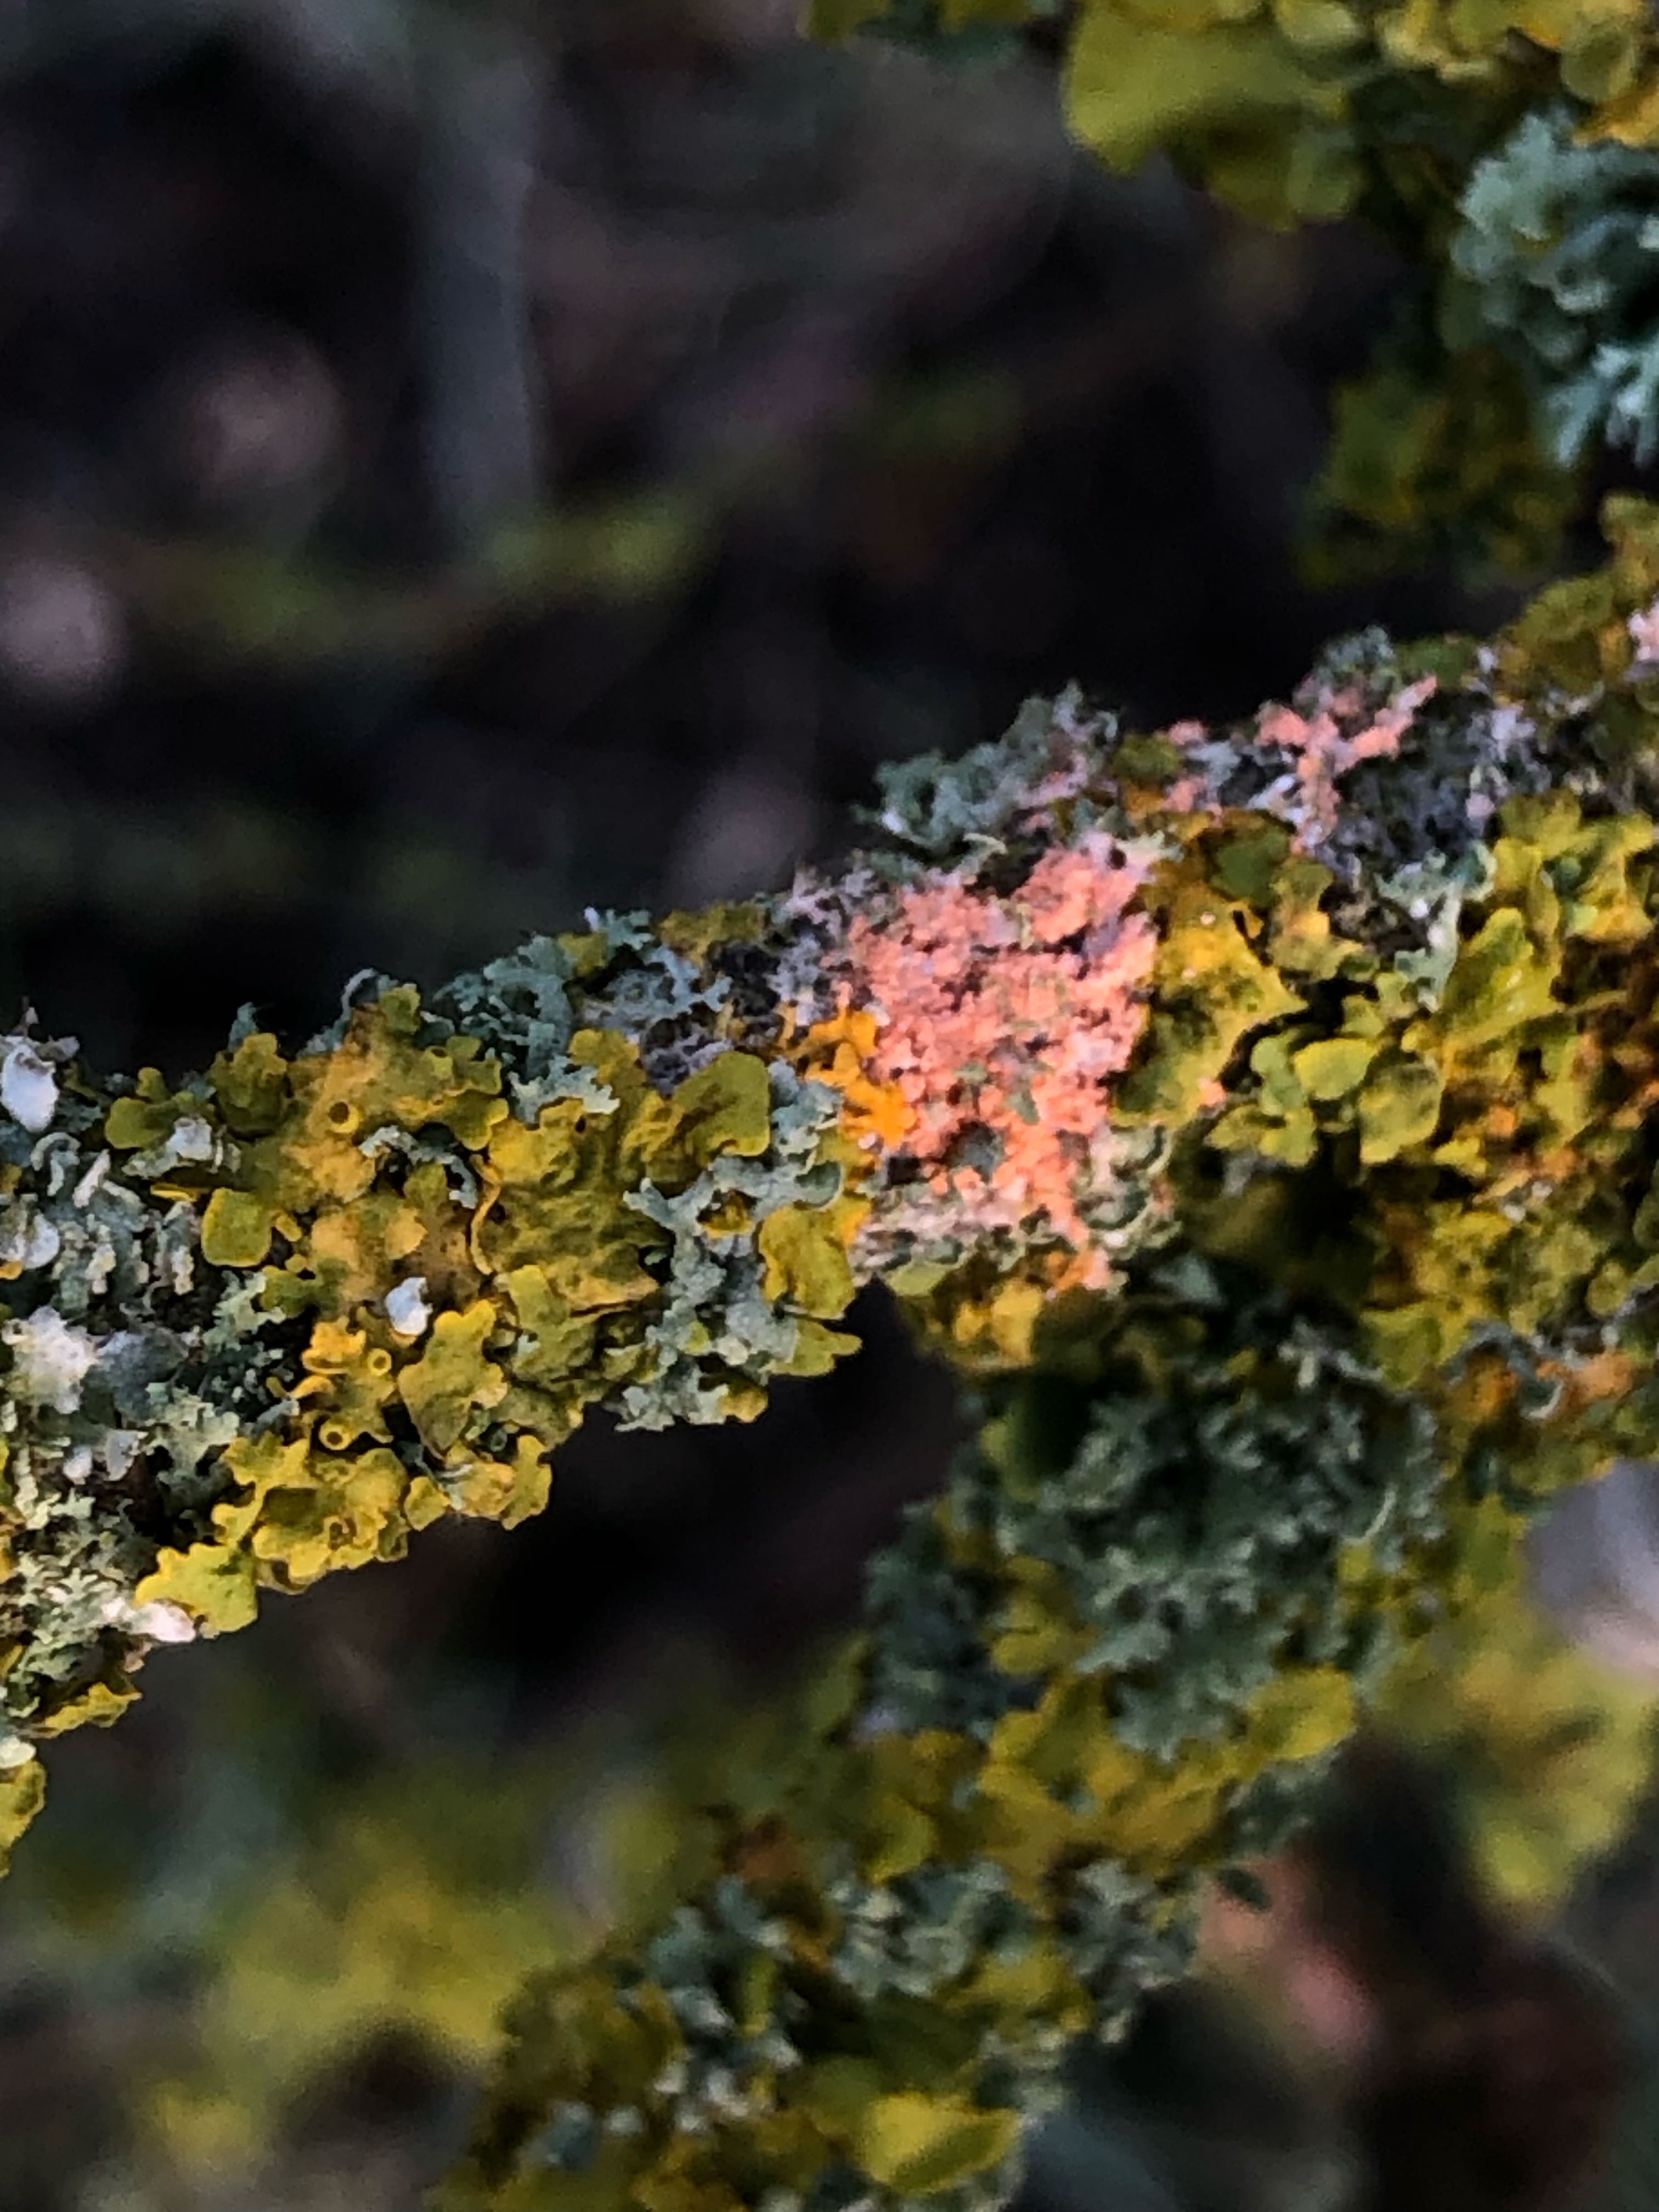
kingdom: Fungi
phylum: Basidiomycota
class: Agaricomycetes
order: Corticiales
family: Corticiaceae
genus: Erythricium
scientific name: Erythricium aurantiacum
